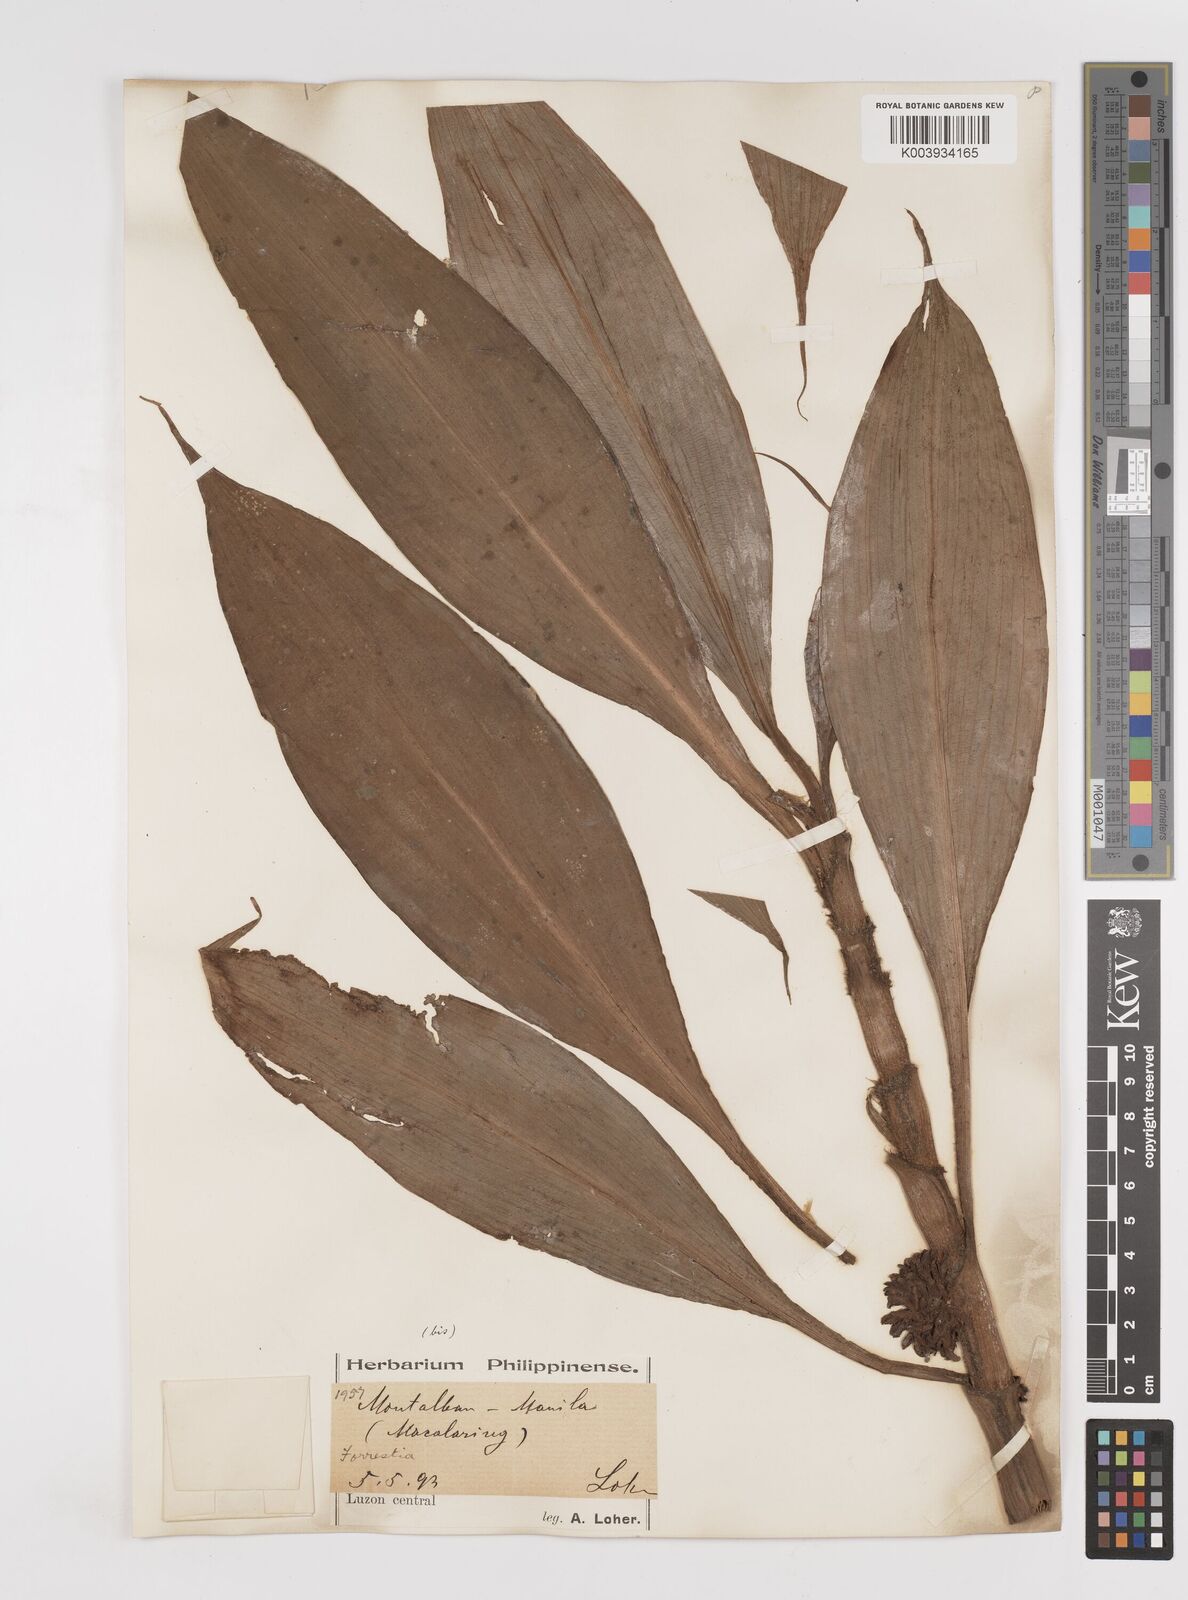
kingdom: Plantae
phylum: Tracheophyta
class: Liliopsida
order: Commelinales
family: Commelinaceae
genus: Amischotolype
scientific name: Amischotolype
